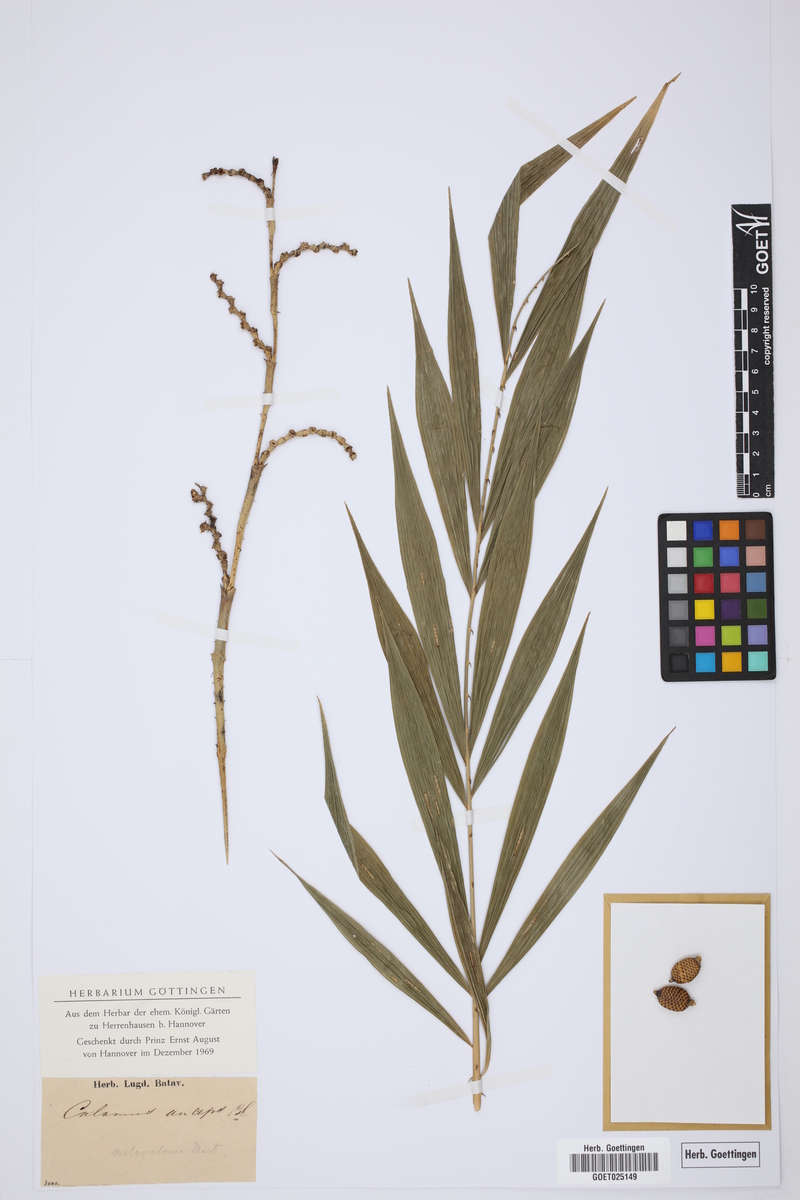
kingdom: Plantae
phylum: Tracheophyta
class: Liliopsida
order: Arecales
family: Arecaceae
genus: Calamus
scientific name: Calamus melanoloma
